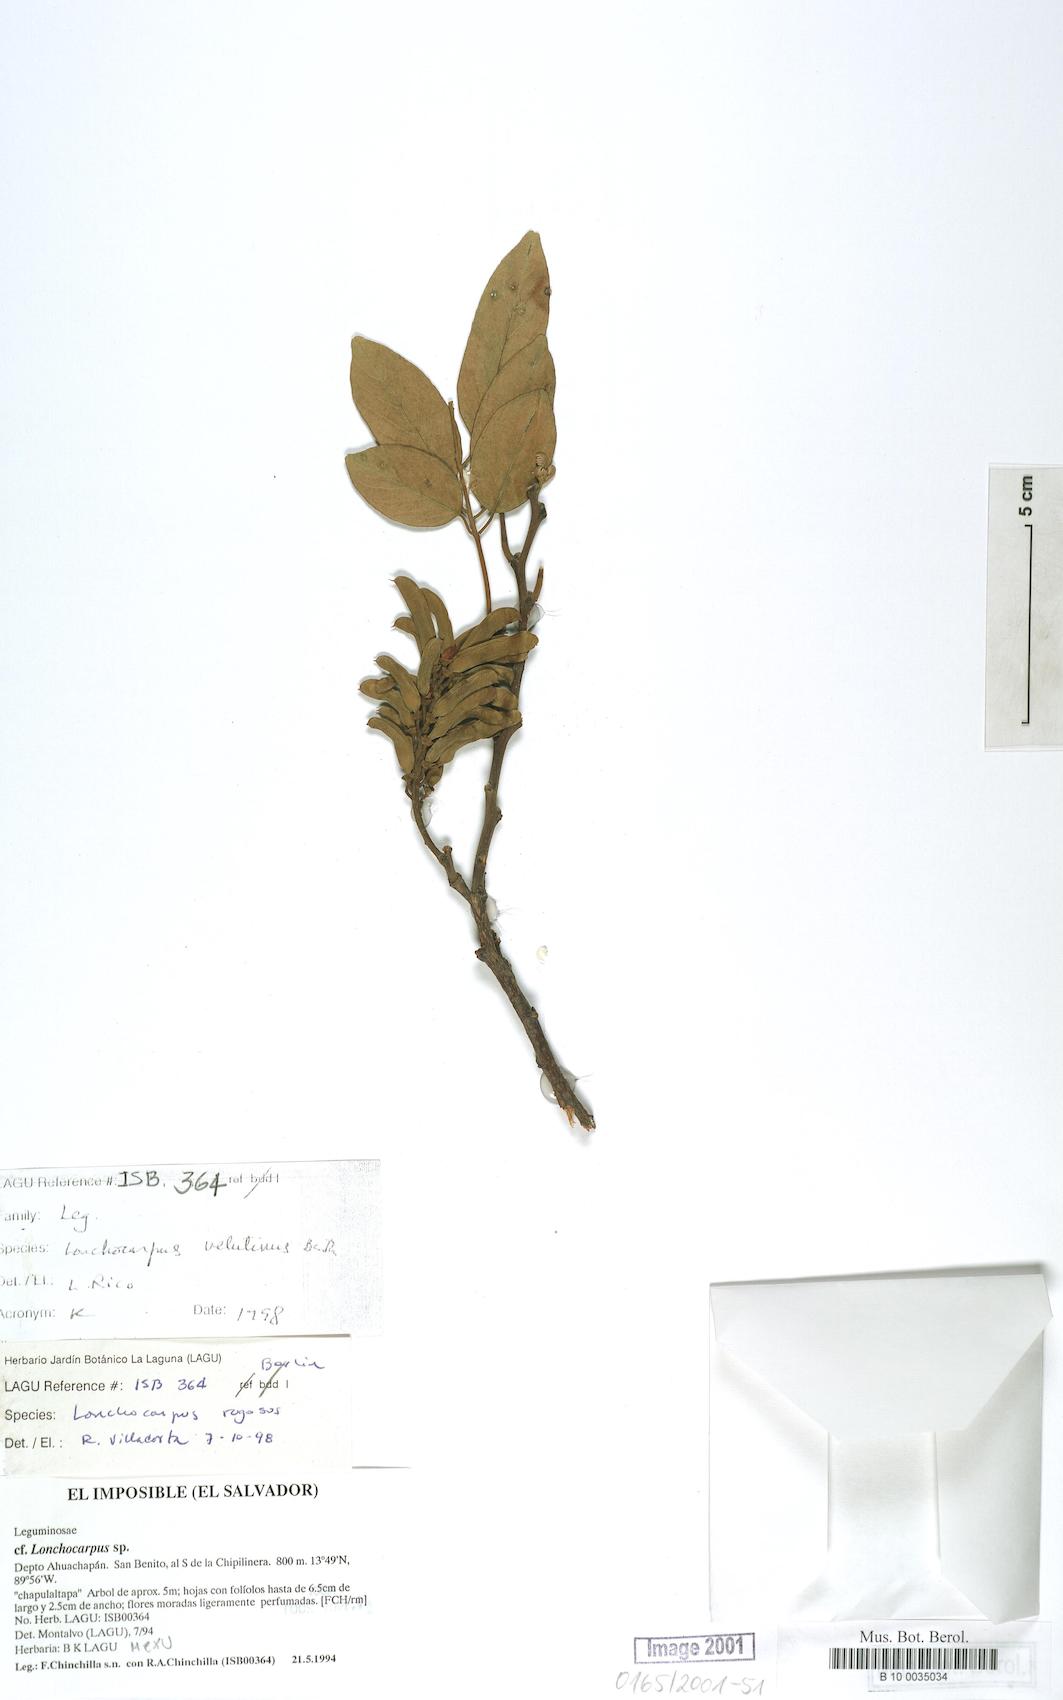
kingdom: Plantae
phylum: Tracheophyta
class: Magnoliopsida
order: Fabales
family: Fabaceae
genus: Lonchocarpus
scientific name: Lonchocarpus purpureus
